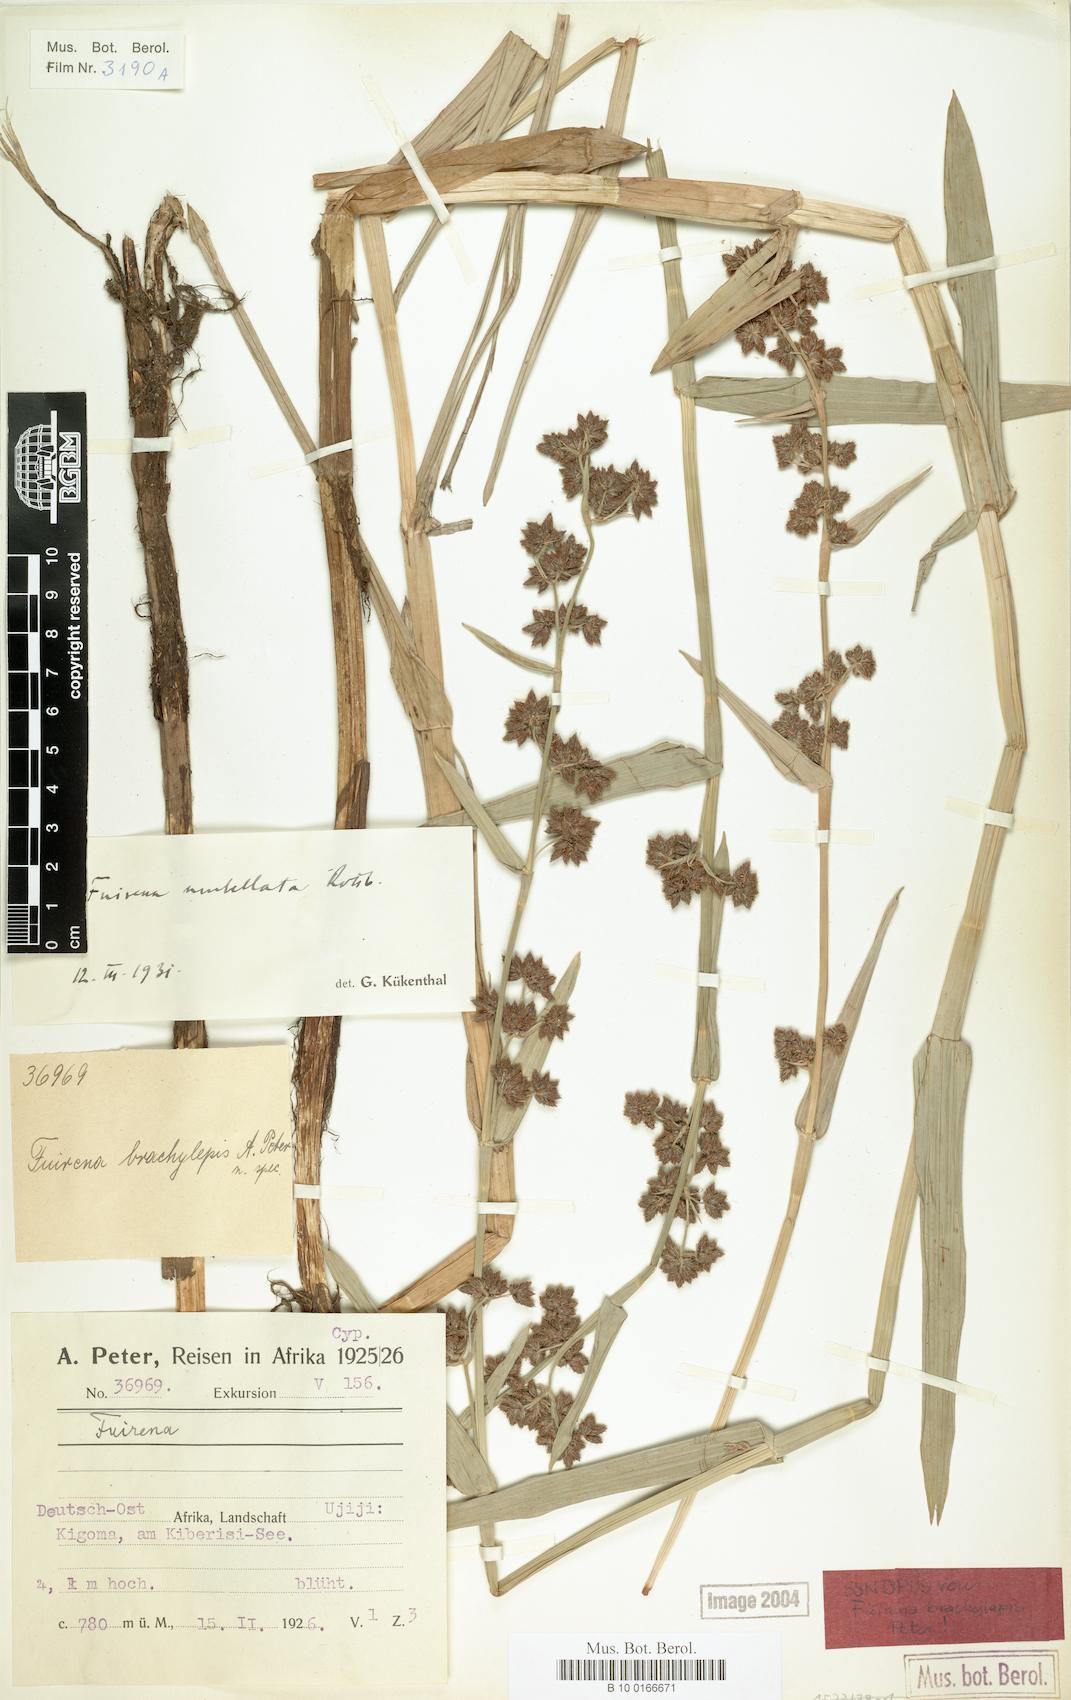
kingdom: Plantae
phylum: Tracheophyta
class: Liliopsida
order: Poales
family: Cyperaceae
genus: Fuirena
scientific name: Fuirena umbellata
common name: Yefen
